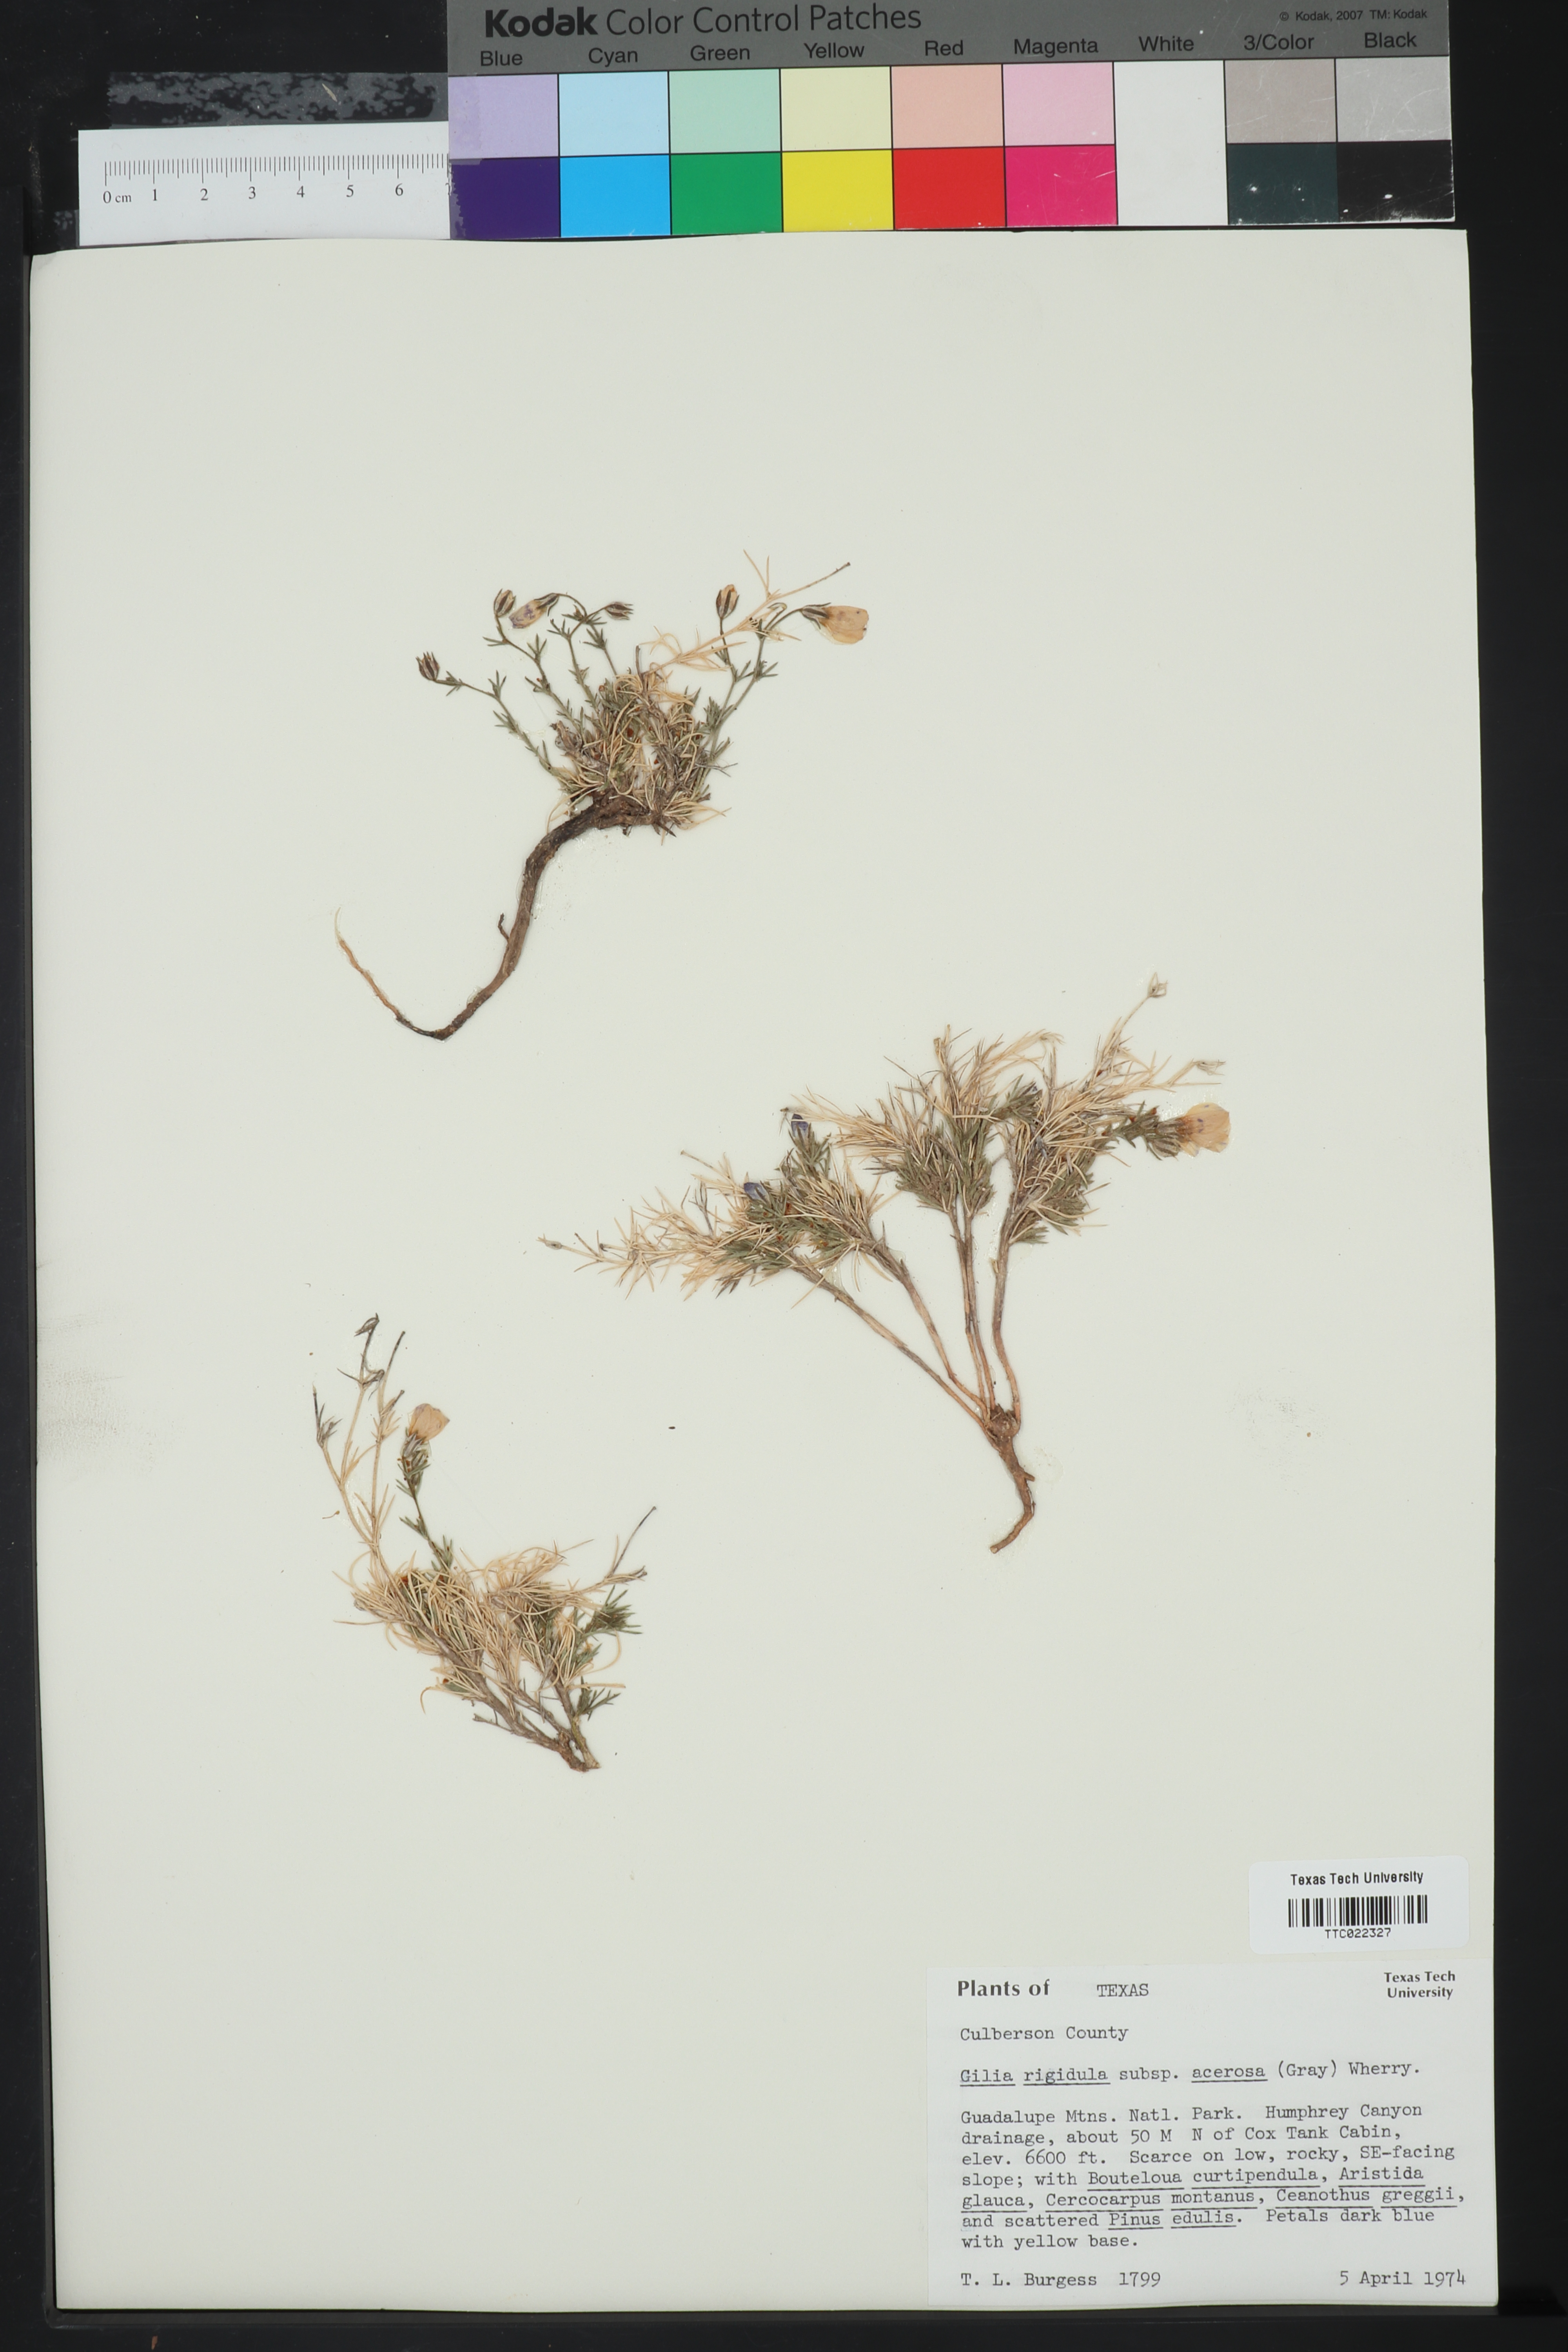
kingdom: Plantae
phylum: Tracheophyta
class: Magnoliopsida
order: Ericales
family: Polemoniaceae
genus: Giliastrum
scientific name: Giliastrum acerosum
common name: Bluebowls
